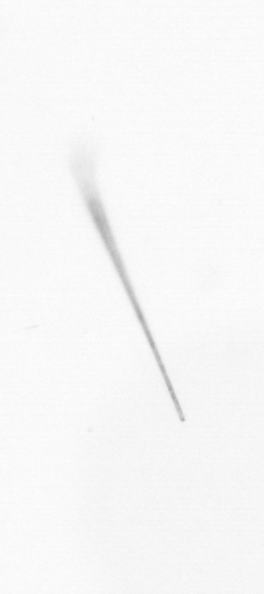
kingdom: Chromista
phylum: Ochrophyta
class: Bacillariophyceae
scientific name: Bacillariophyceae
